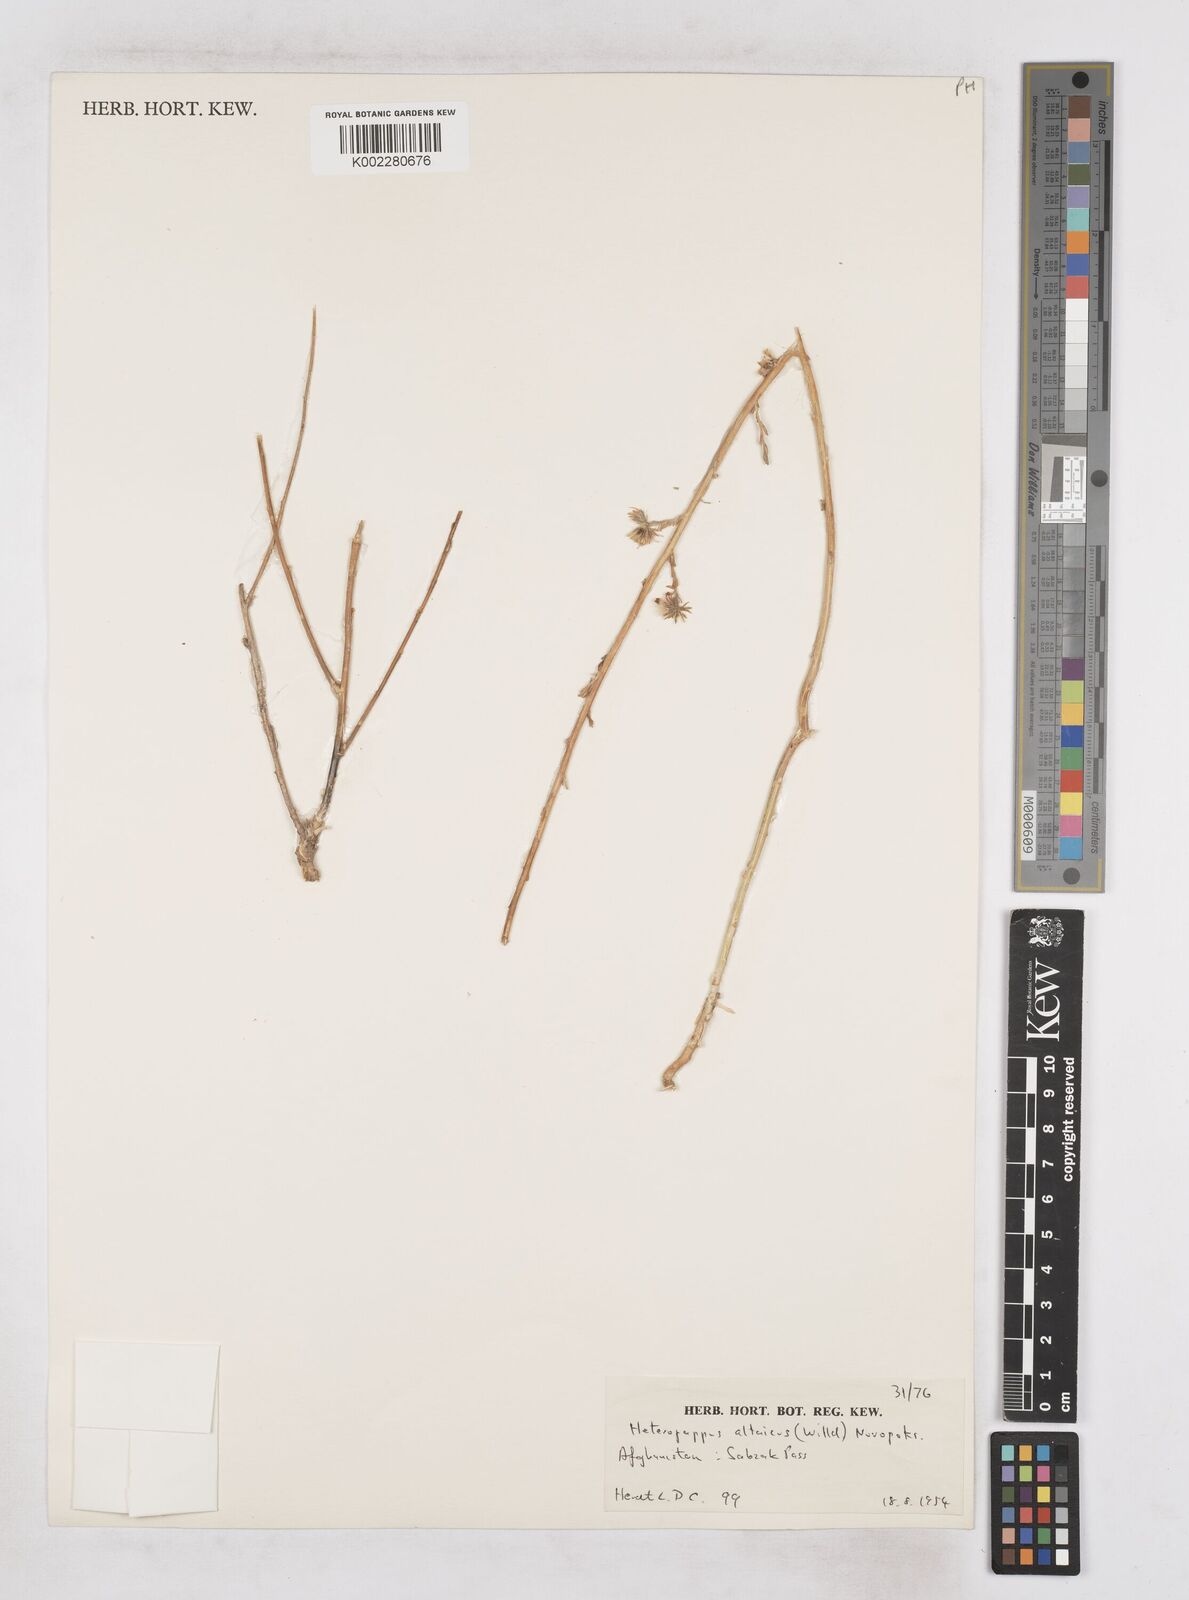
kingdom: Plantae
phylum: Tracheophyta
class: Magnoliopsida
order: Asterales
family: Asteraceae
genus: Heteropappus
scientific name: Heteropappus altaicus
